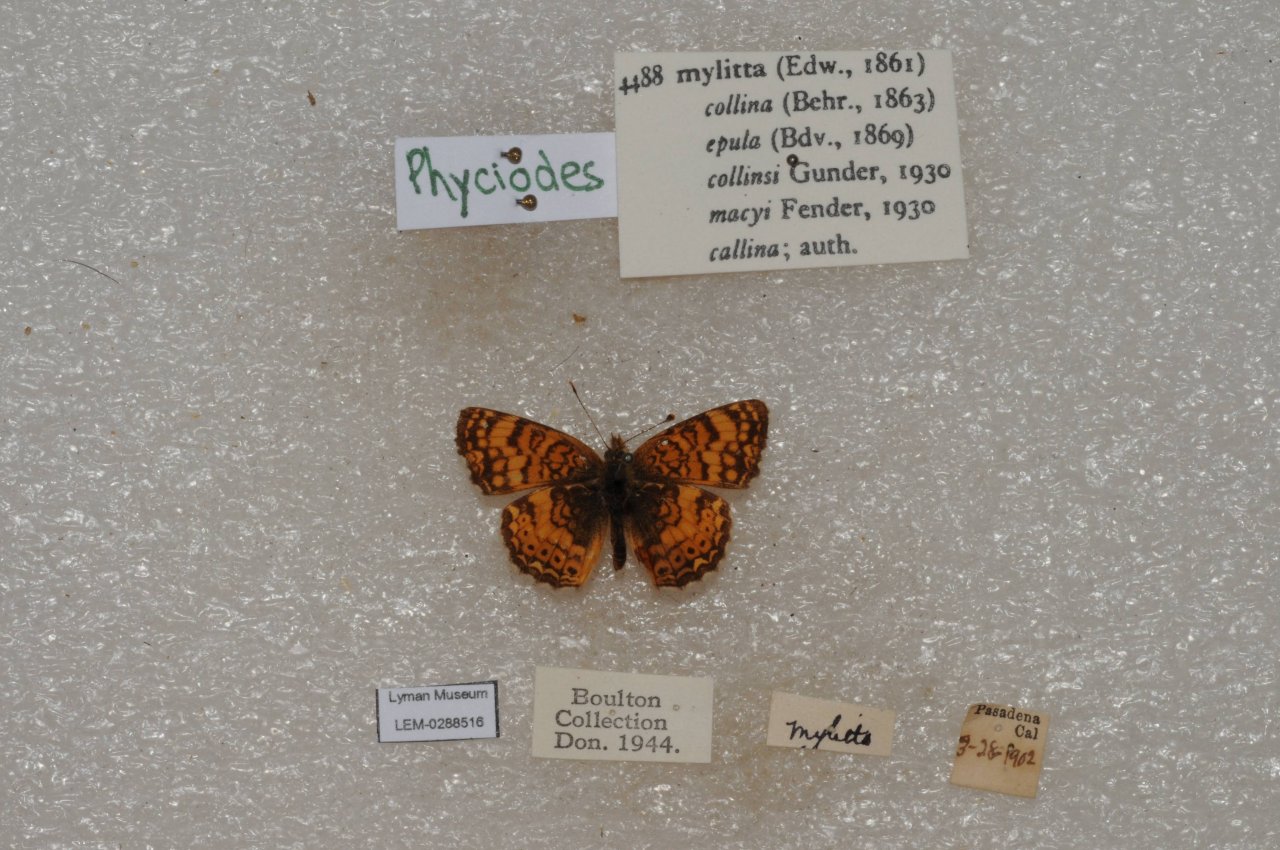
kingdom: Animalia
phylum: Arthropoda
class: Insecta
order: Lepidoptera
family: Nymphalidae
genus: Eresia
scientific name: Eresia aveyrona
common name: Mylitta Crescent
